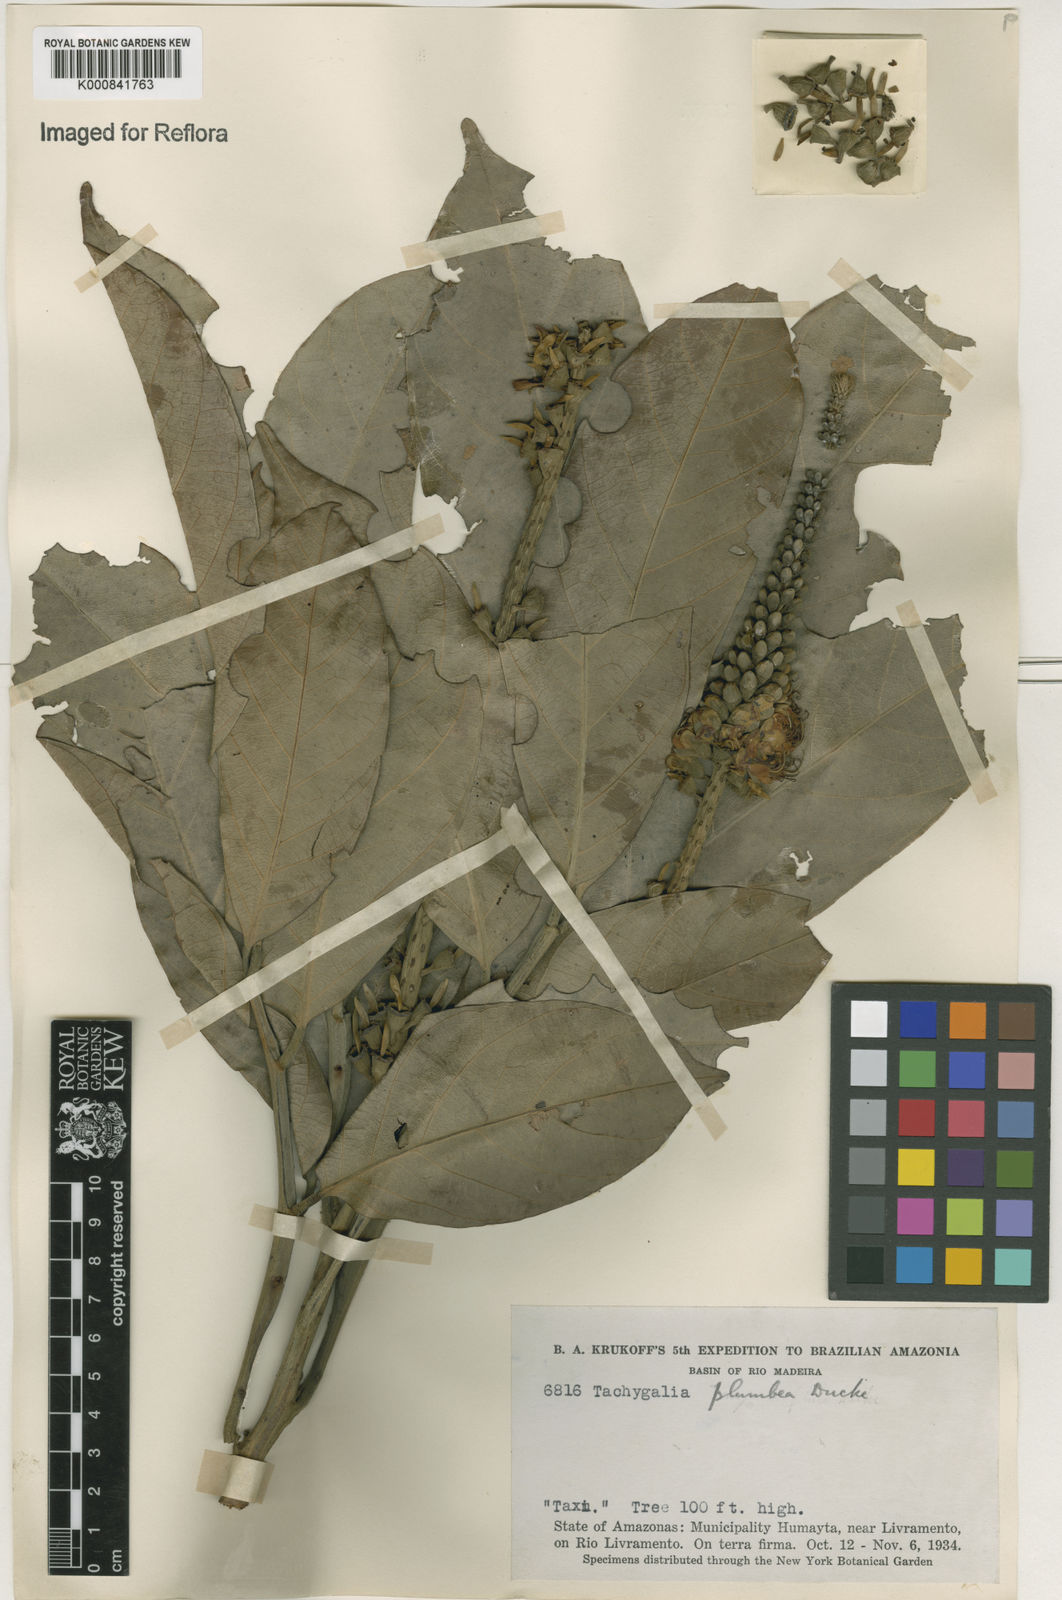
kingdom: Plantae
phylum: Tracheophyta
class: Magnoliopsida
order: Fabales
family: Fabaceae
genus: Tachigali
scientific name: Tachigali plumbea
